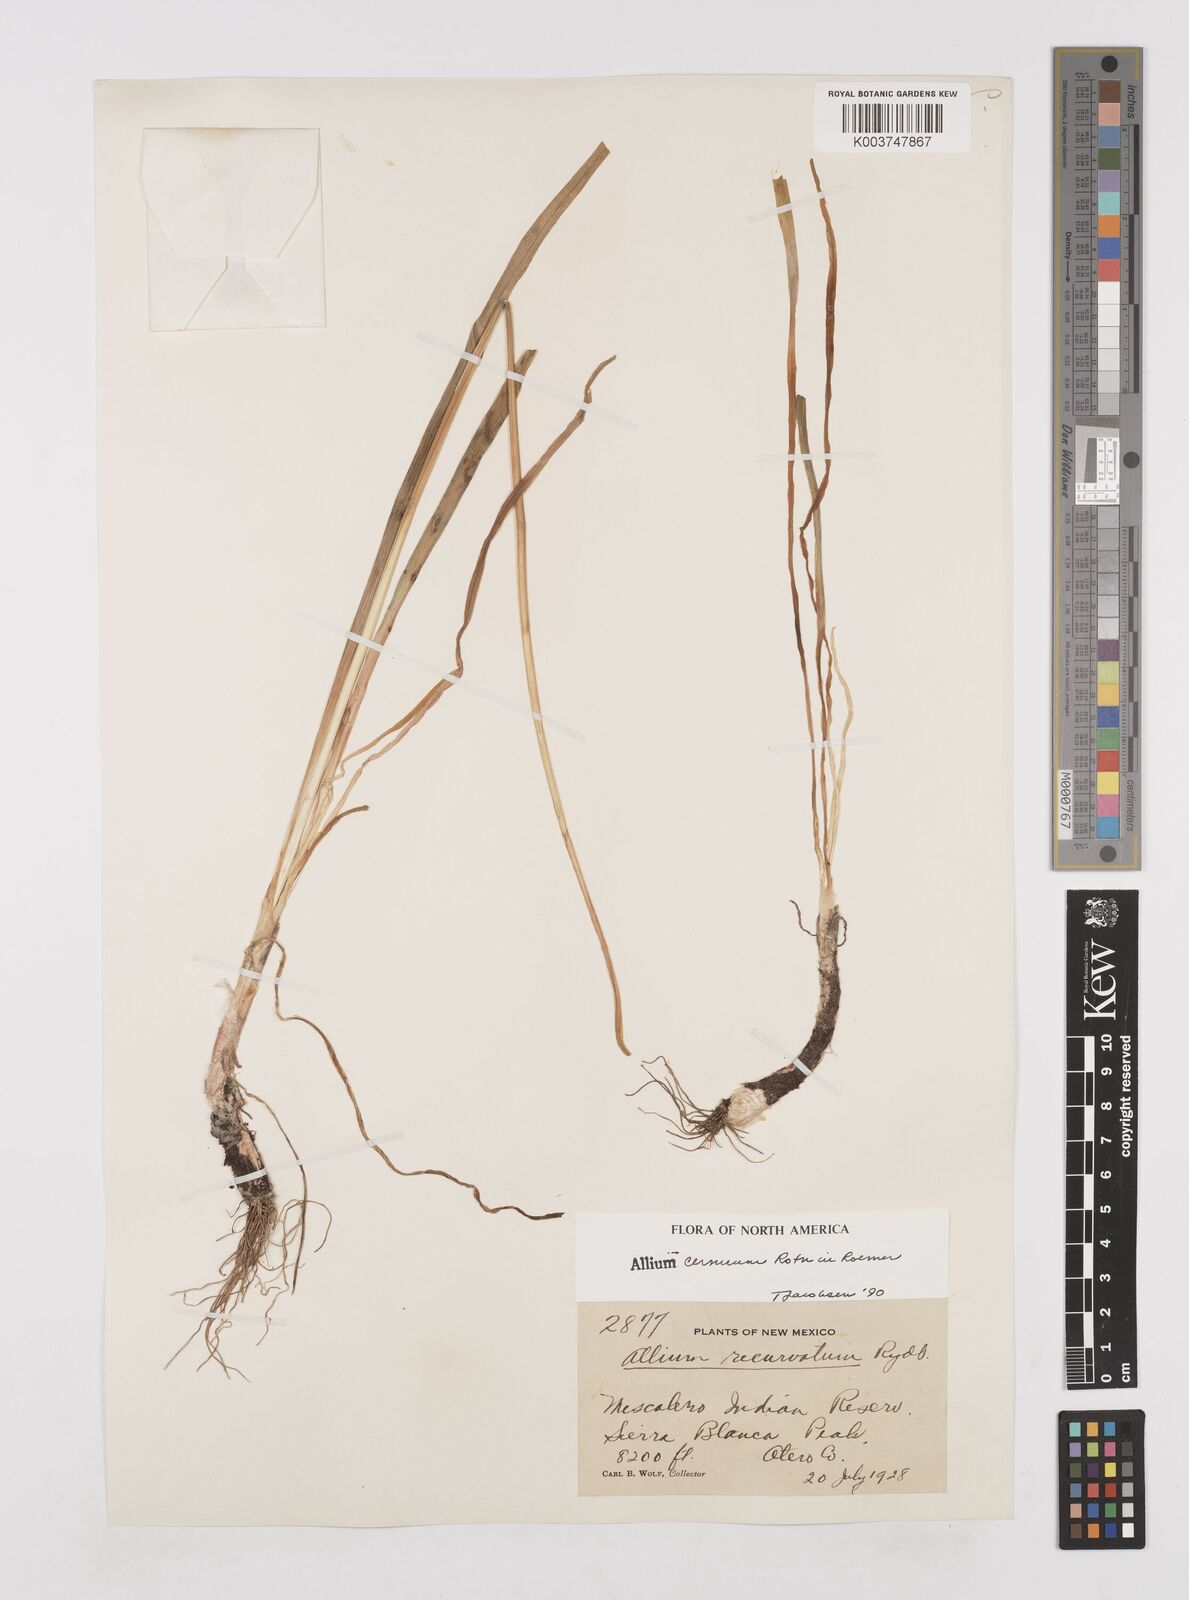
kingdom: Plantae
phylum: Tracheophyta
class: Liliopsida
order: Asparagales
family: Amaryllidaceae
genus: Allium
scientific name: Allium cernuum
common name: Nodding onion
